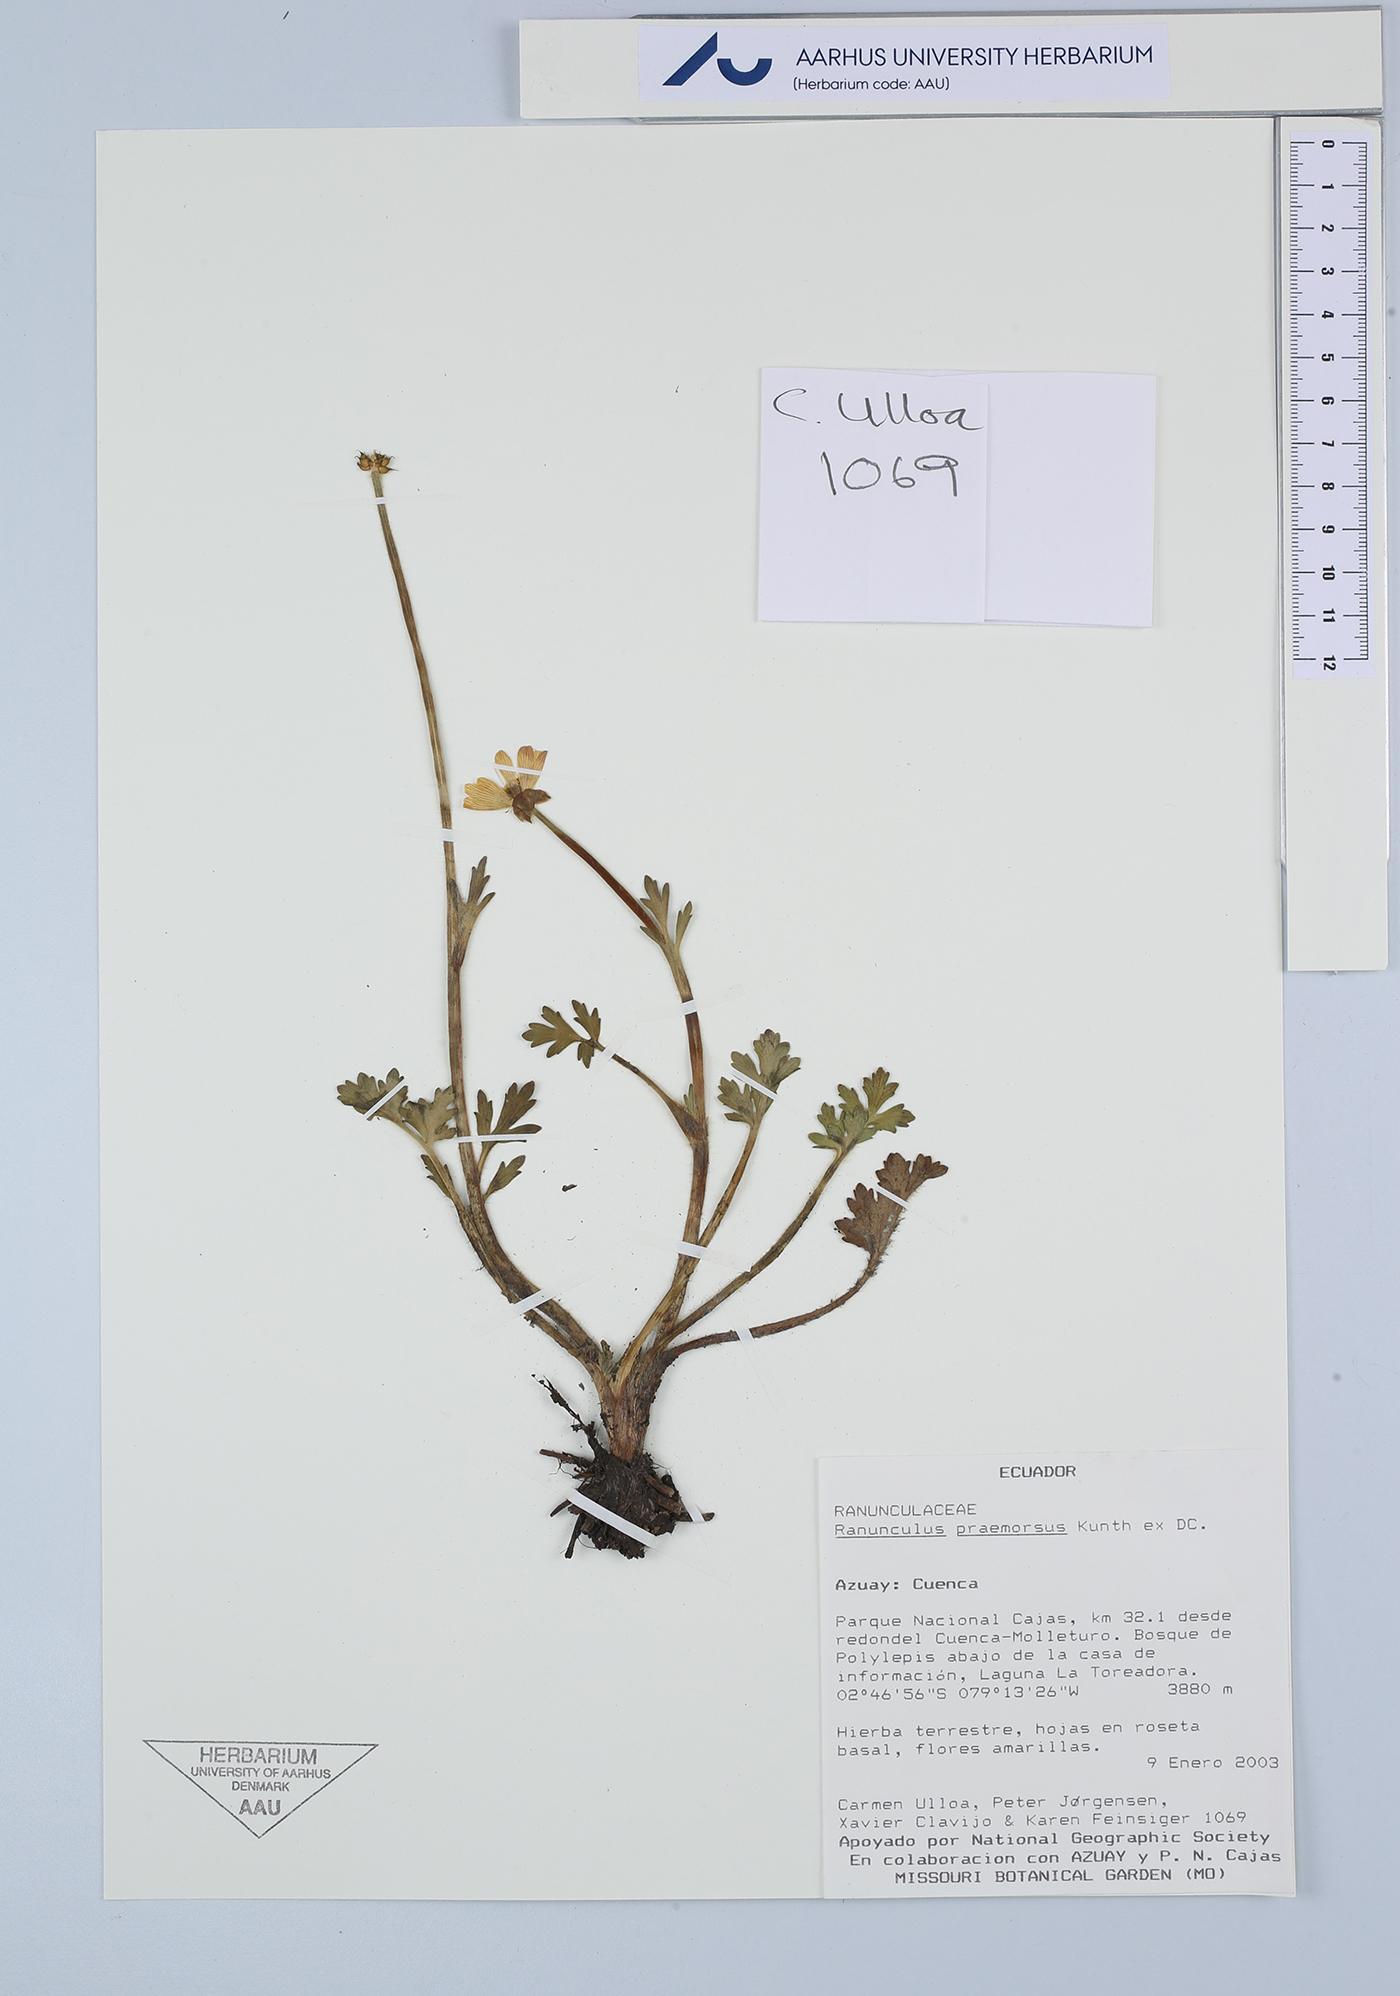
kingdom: Plantae
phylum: Tracheophyta
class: Magnoliopsida
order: Ranunculales
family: Ranunculaceae
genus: Ranunculus
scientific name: Ranunculus praemorsus
